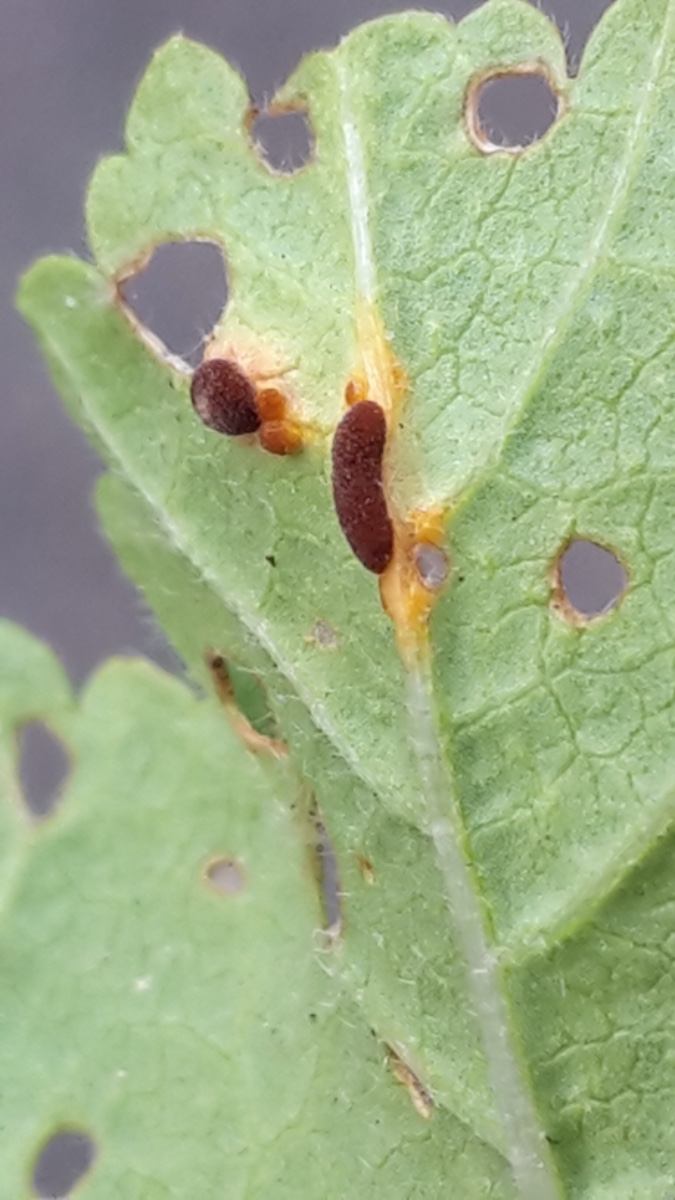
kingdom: Fungi
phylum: Basidiomycota
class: Pucciniomycetes
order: Pucciniales
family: Pucciniaceae
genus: Puccinia
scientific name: Puccinia malvacearum
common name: stokrose-tvecellerust
